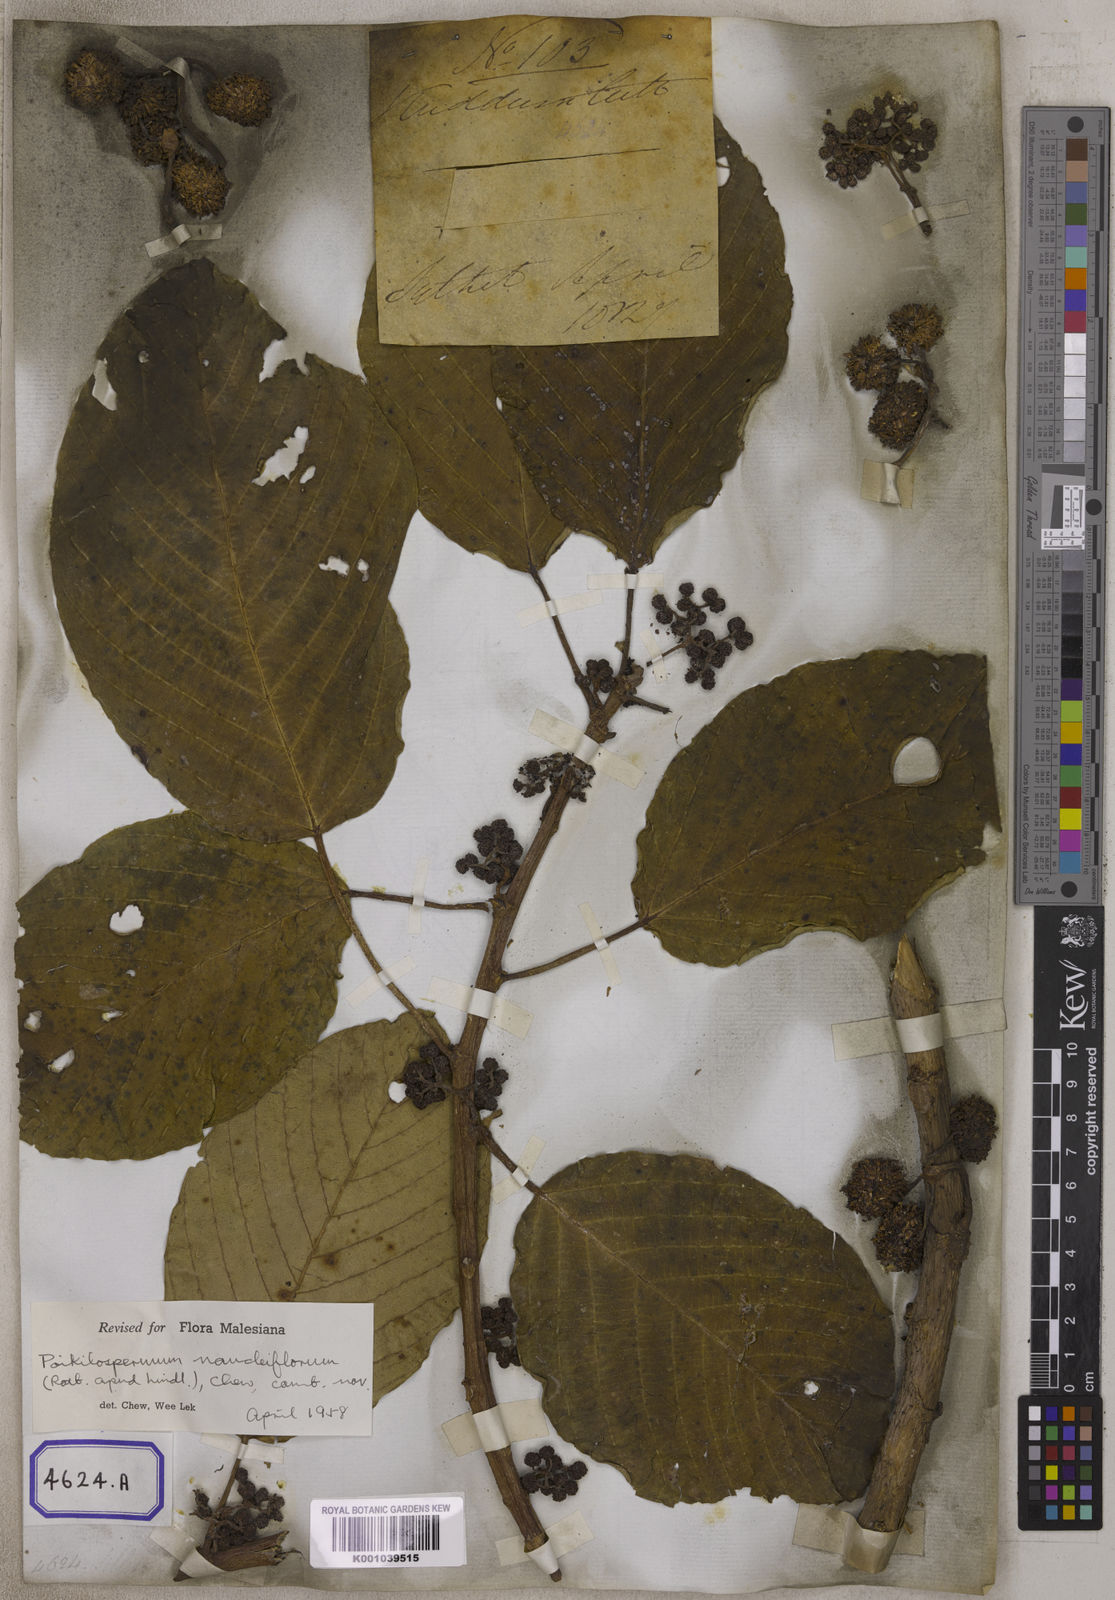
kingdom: Plantae
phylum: Tracheophyta
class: Magnoliopsida
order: Rosales
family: Urticaceae
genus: Urtica
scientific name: Urtica naucliflora
